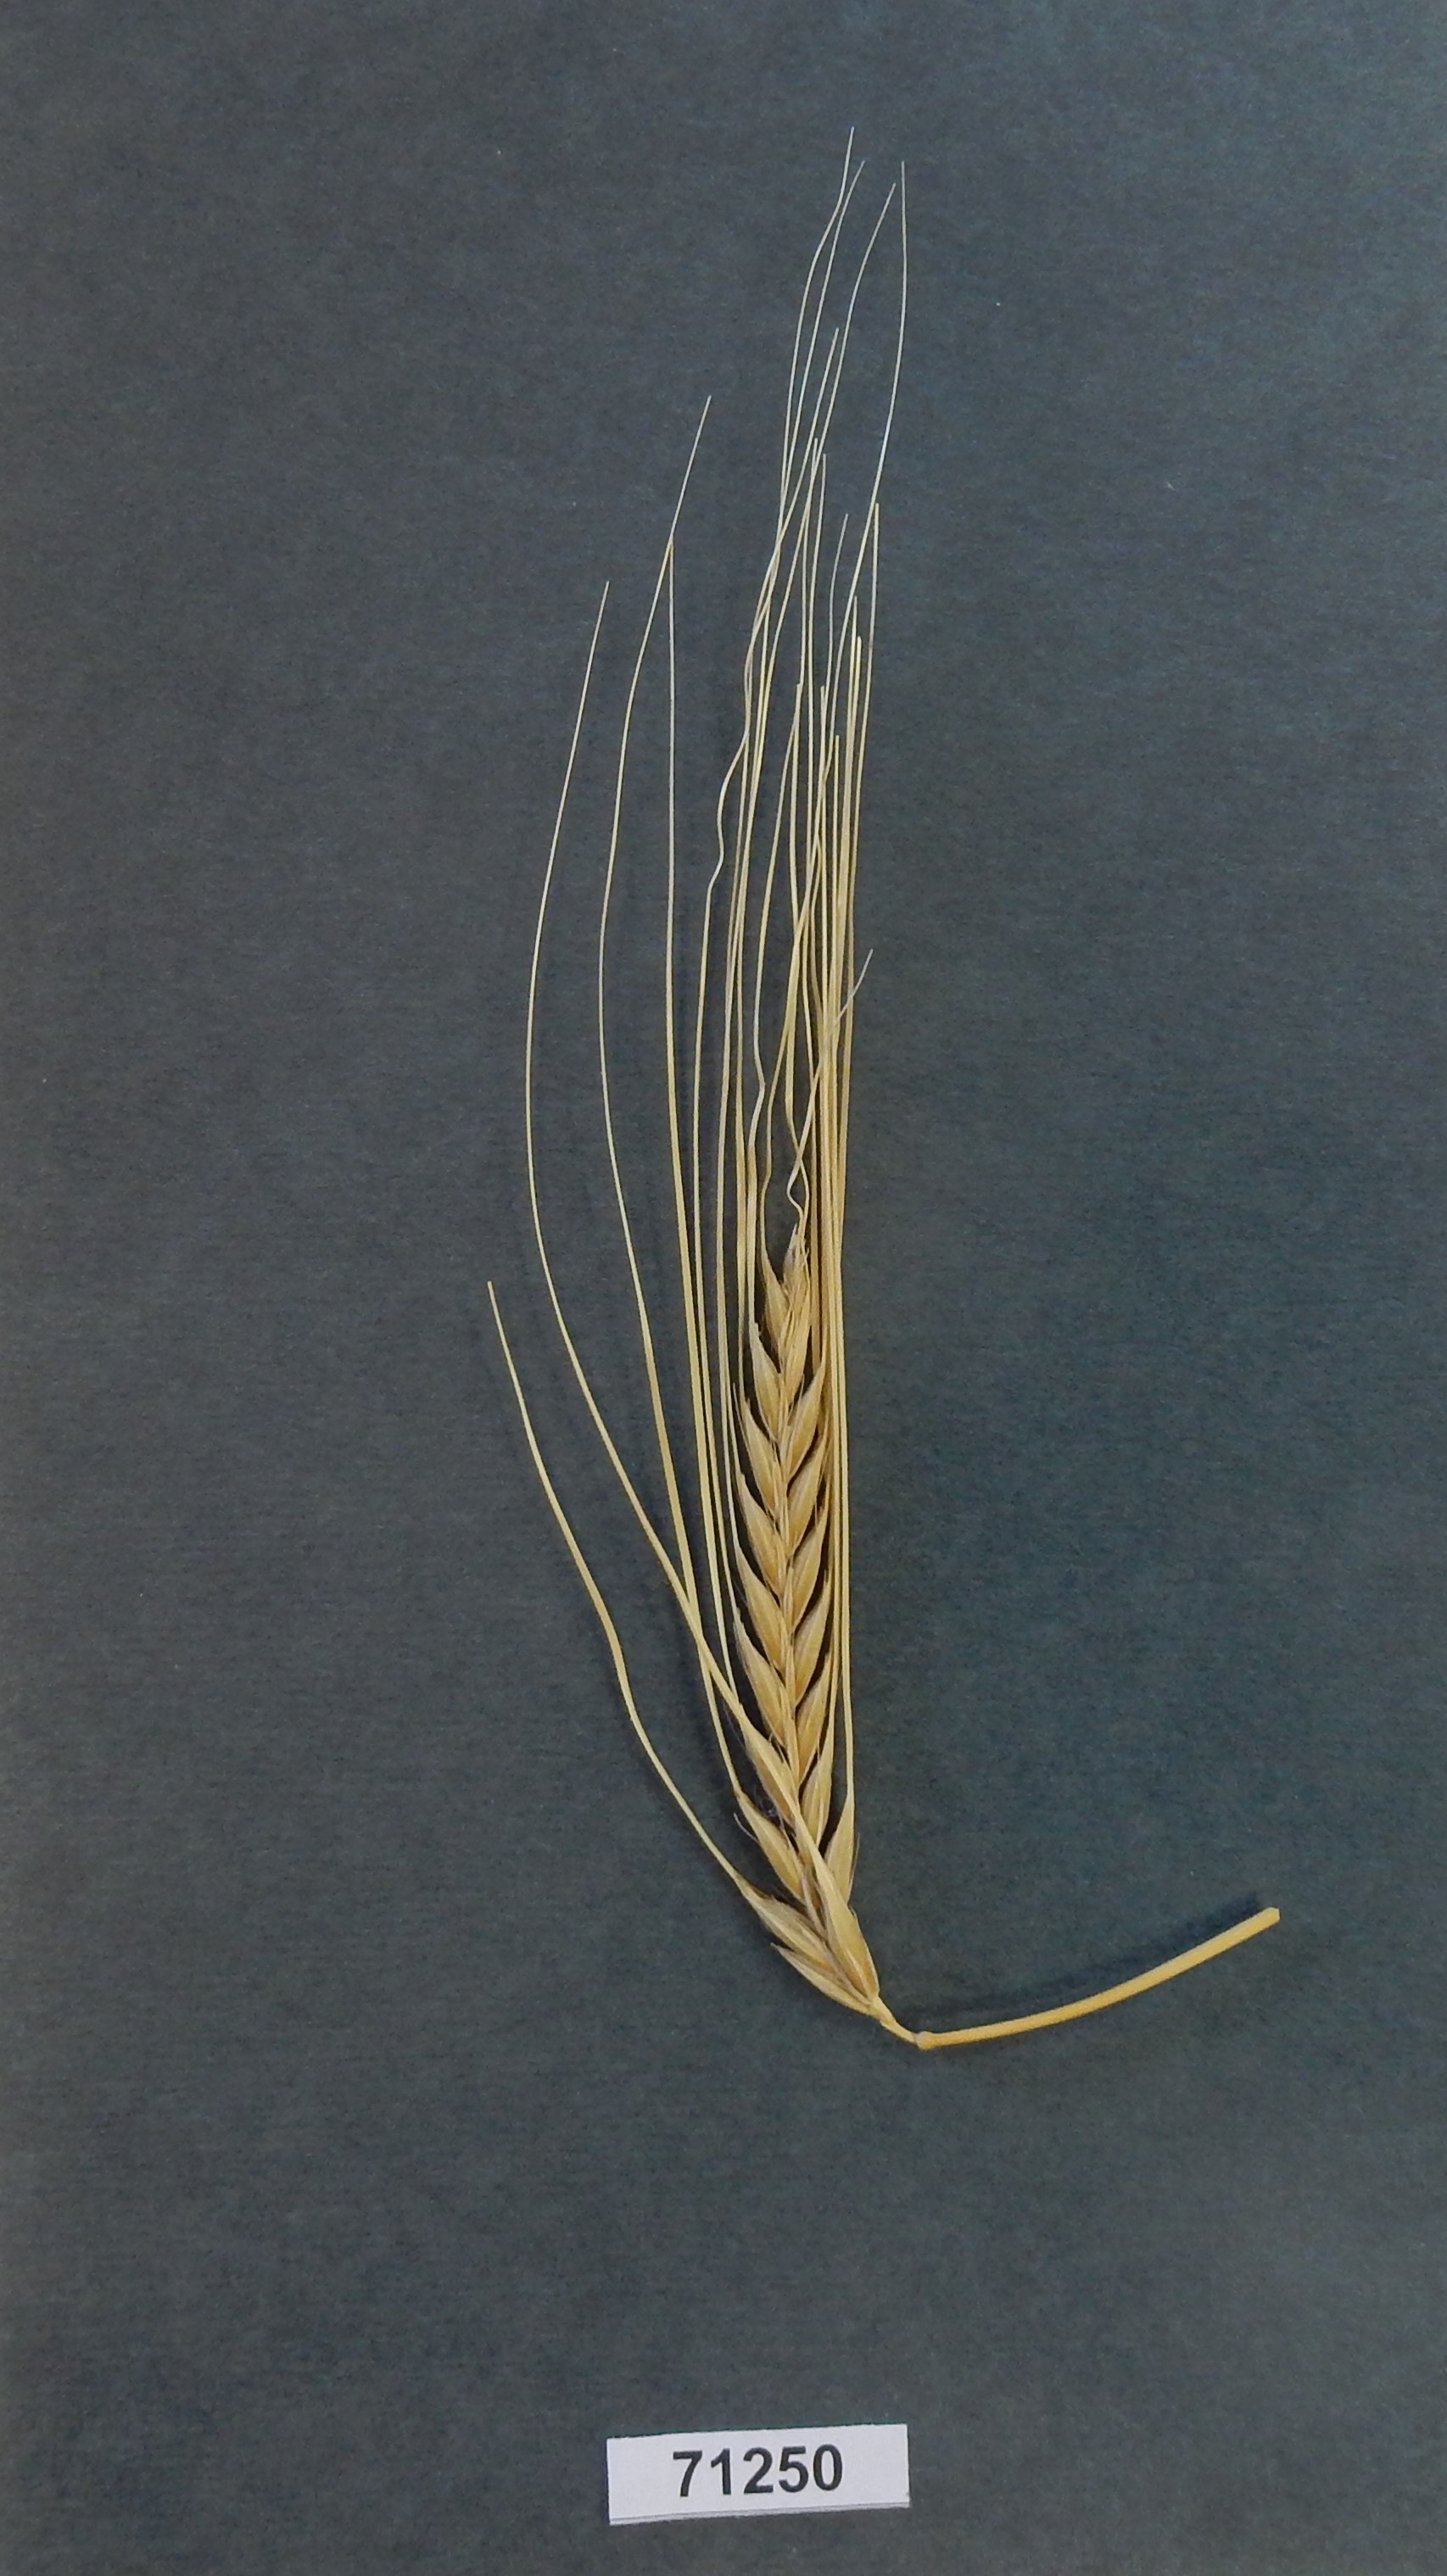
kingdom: Plantae
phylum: Tracheophyta
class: Liliopsida
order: Poales
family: Poaceae
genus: Hordeum
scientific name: Hordeum vulgare
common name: Barley
